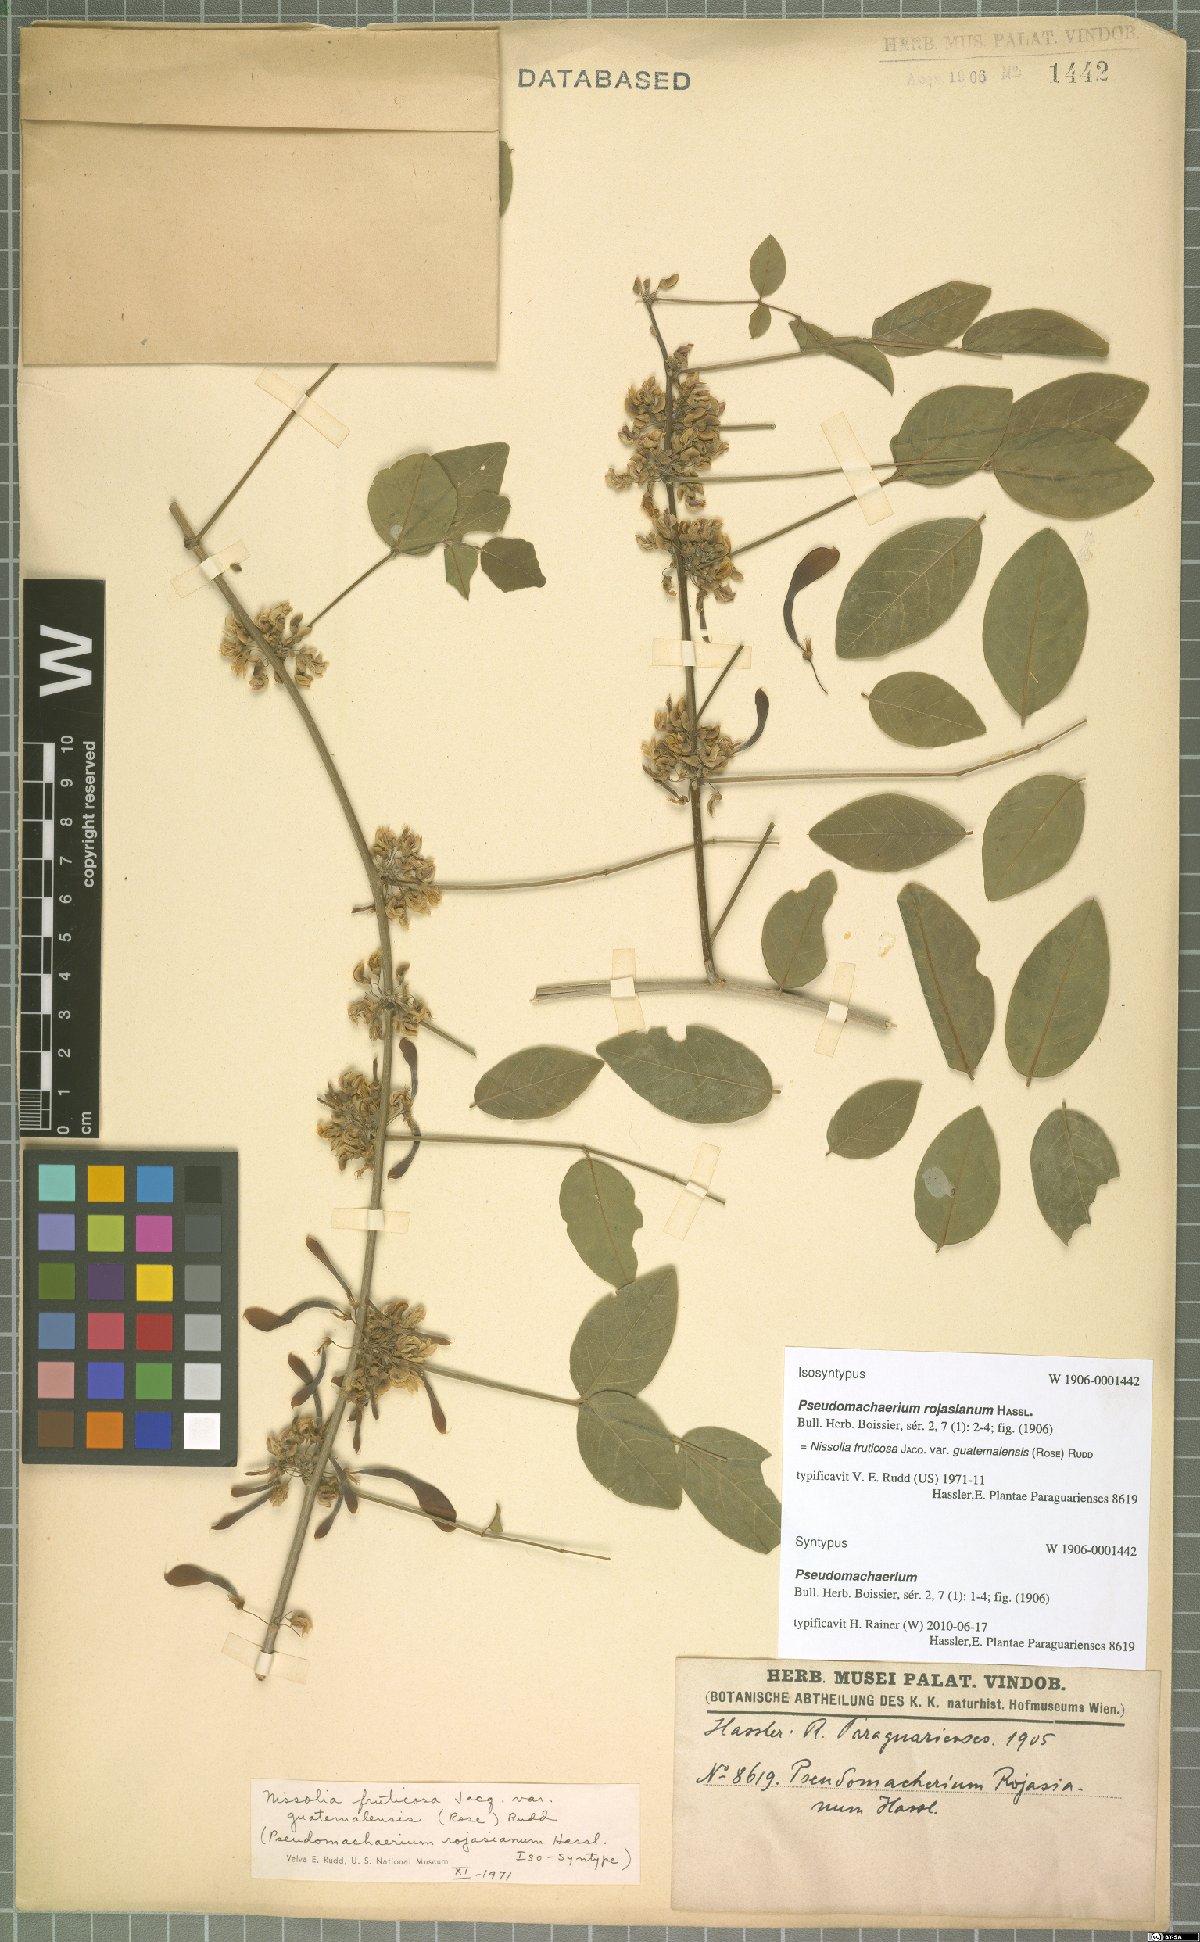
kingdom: Plantae
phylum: Tracheophyta
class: Magnoliopsida
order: Fabales
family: Fabaceae
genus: Nissolia
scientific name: Nissolia fruticosa
